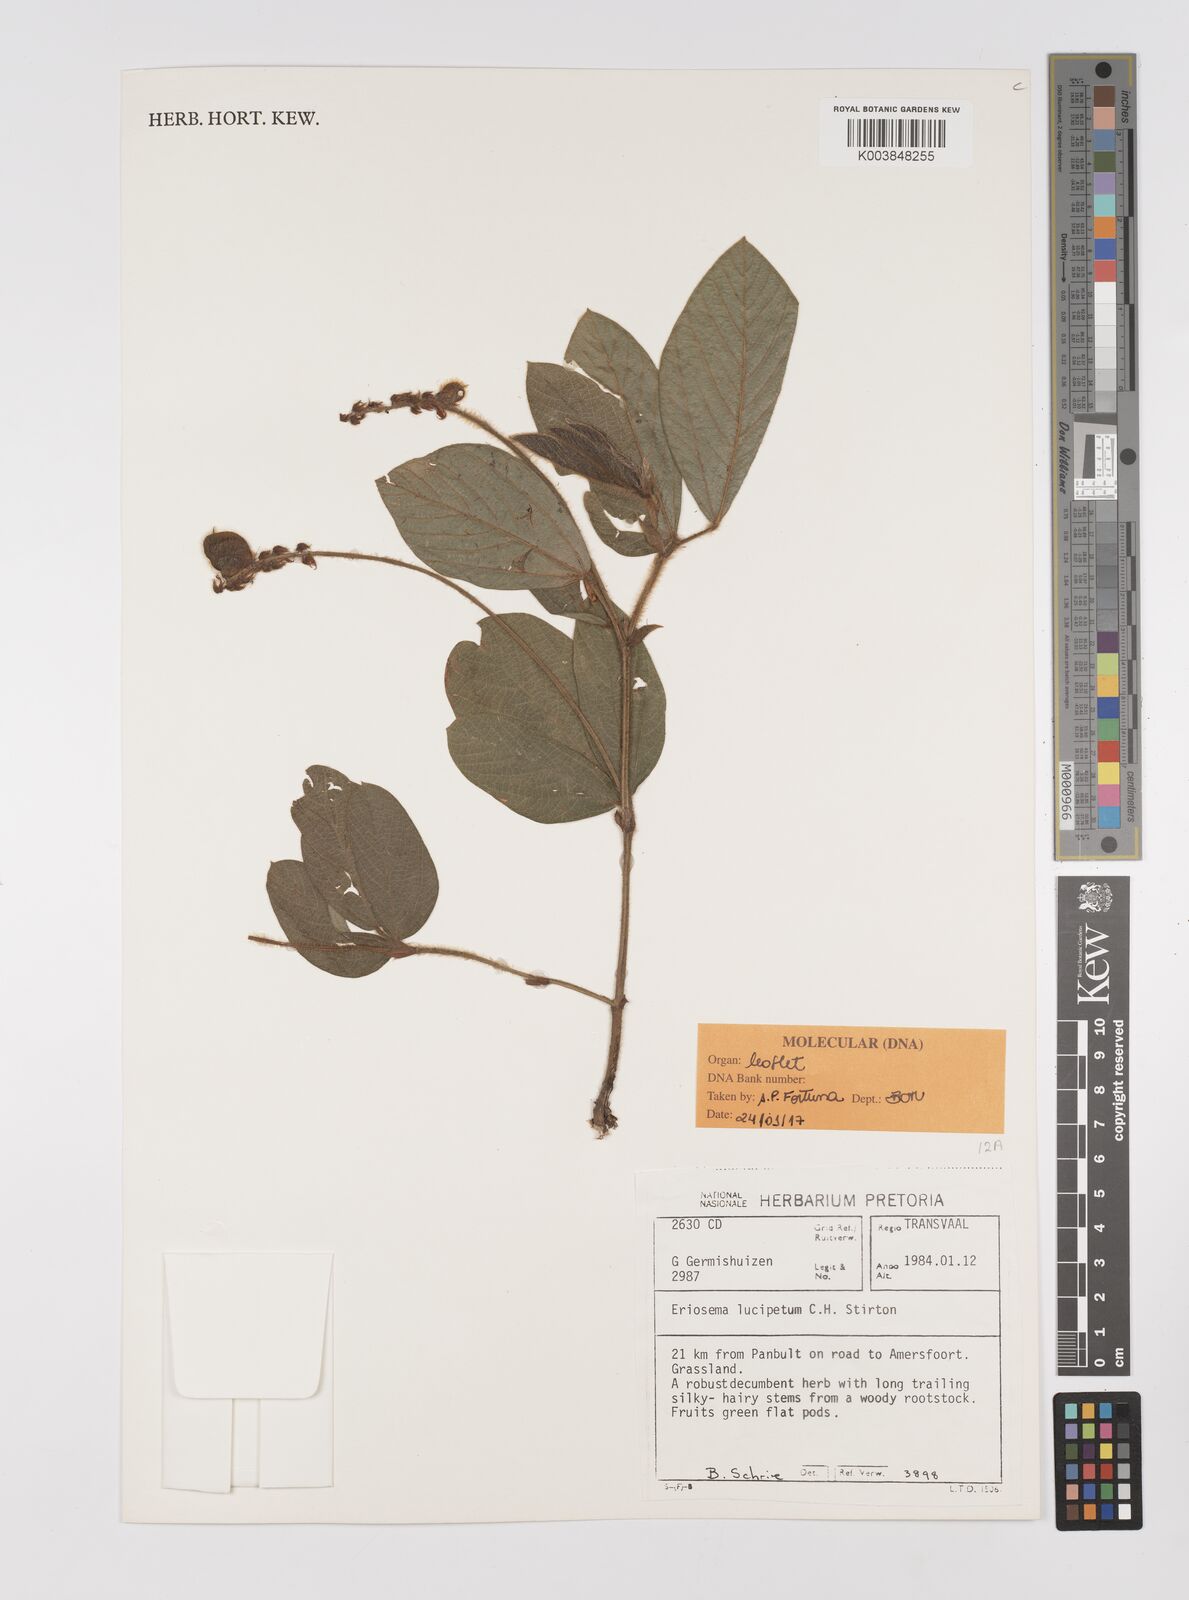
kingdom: Plantae
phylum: Tracheophyta
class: Magnoliopsida
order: Fabales
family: Fabaceae
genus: Eriosema
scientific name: Eriosema lucipetum
